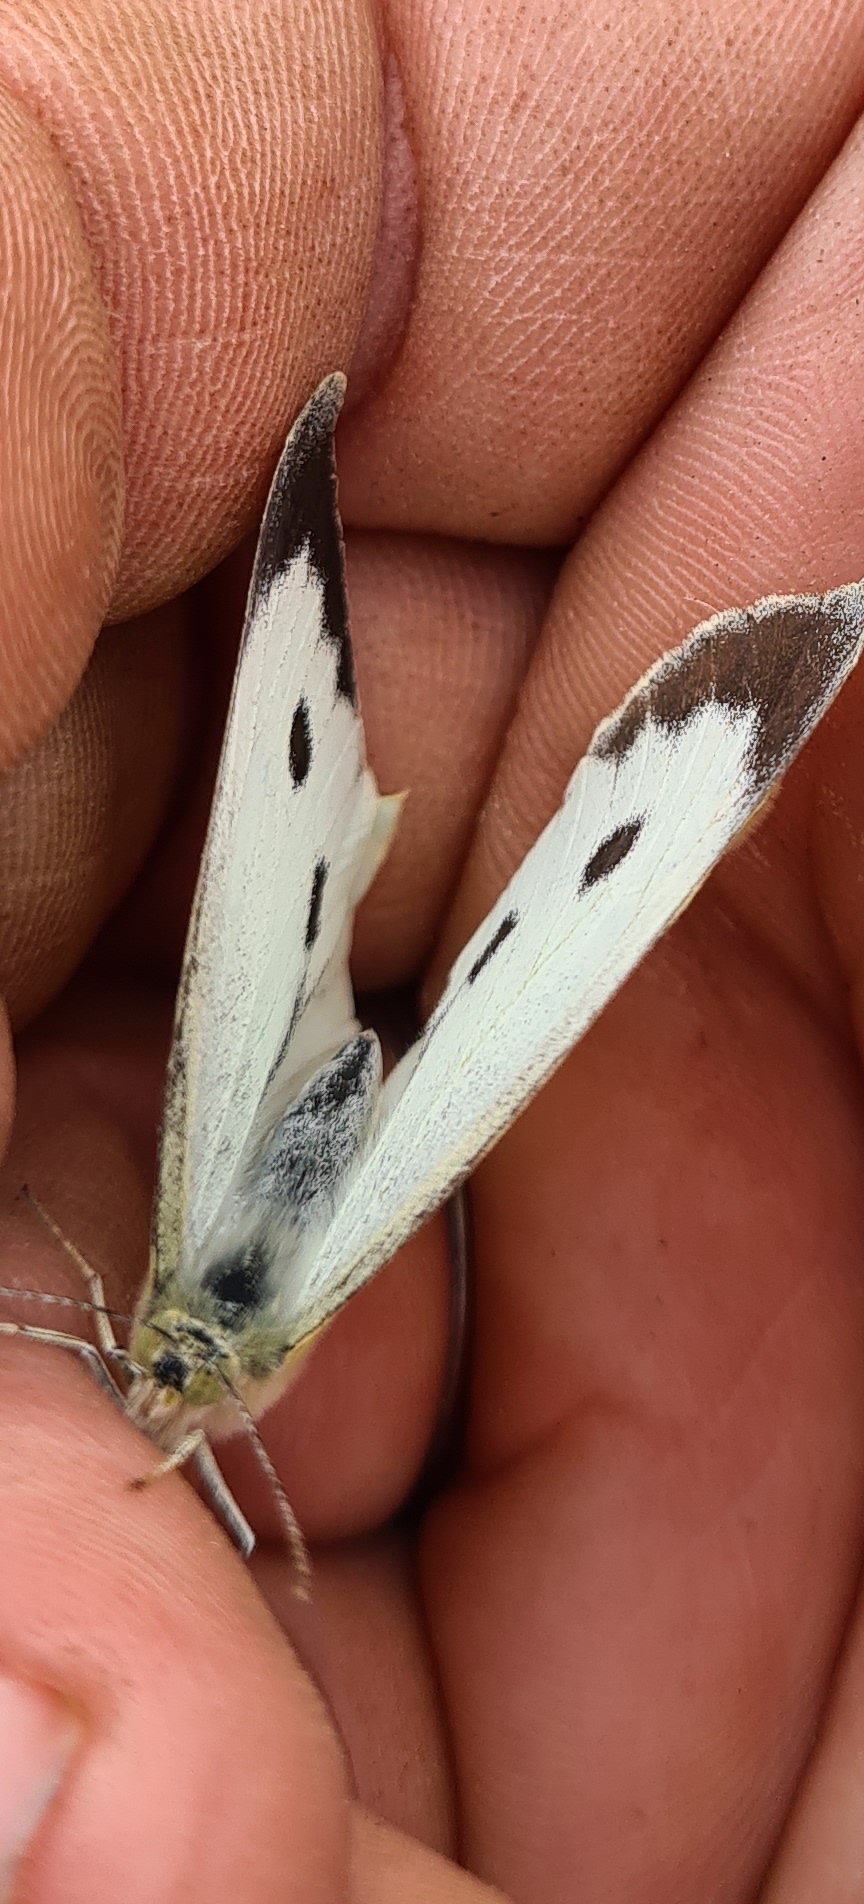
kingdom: Animalia
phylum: Arthropoda
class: Insecta
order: Lepidoptera
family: Pieridae
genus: Pieris
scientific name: Pieris brassicae
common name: Stor kålsommerfugl
